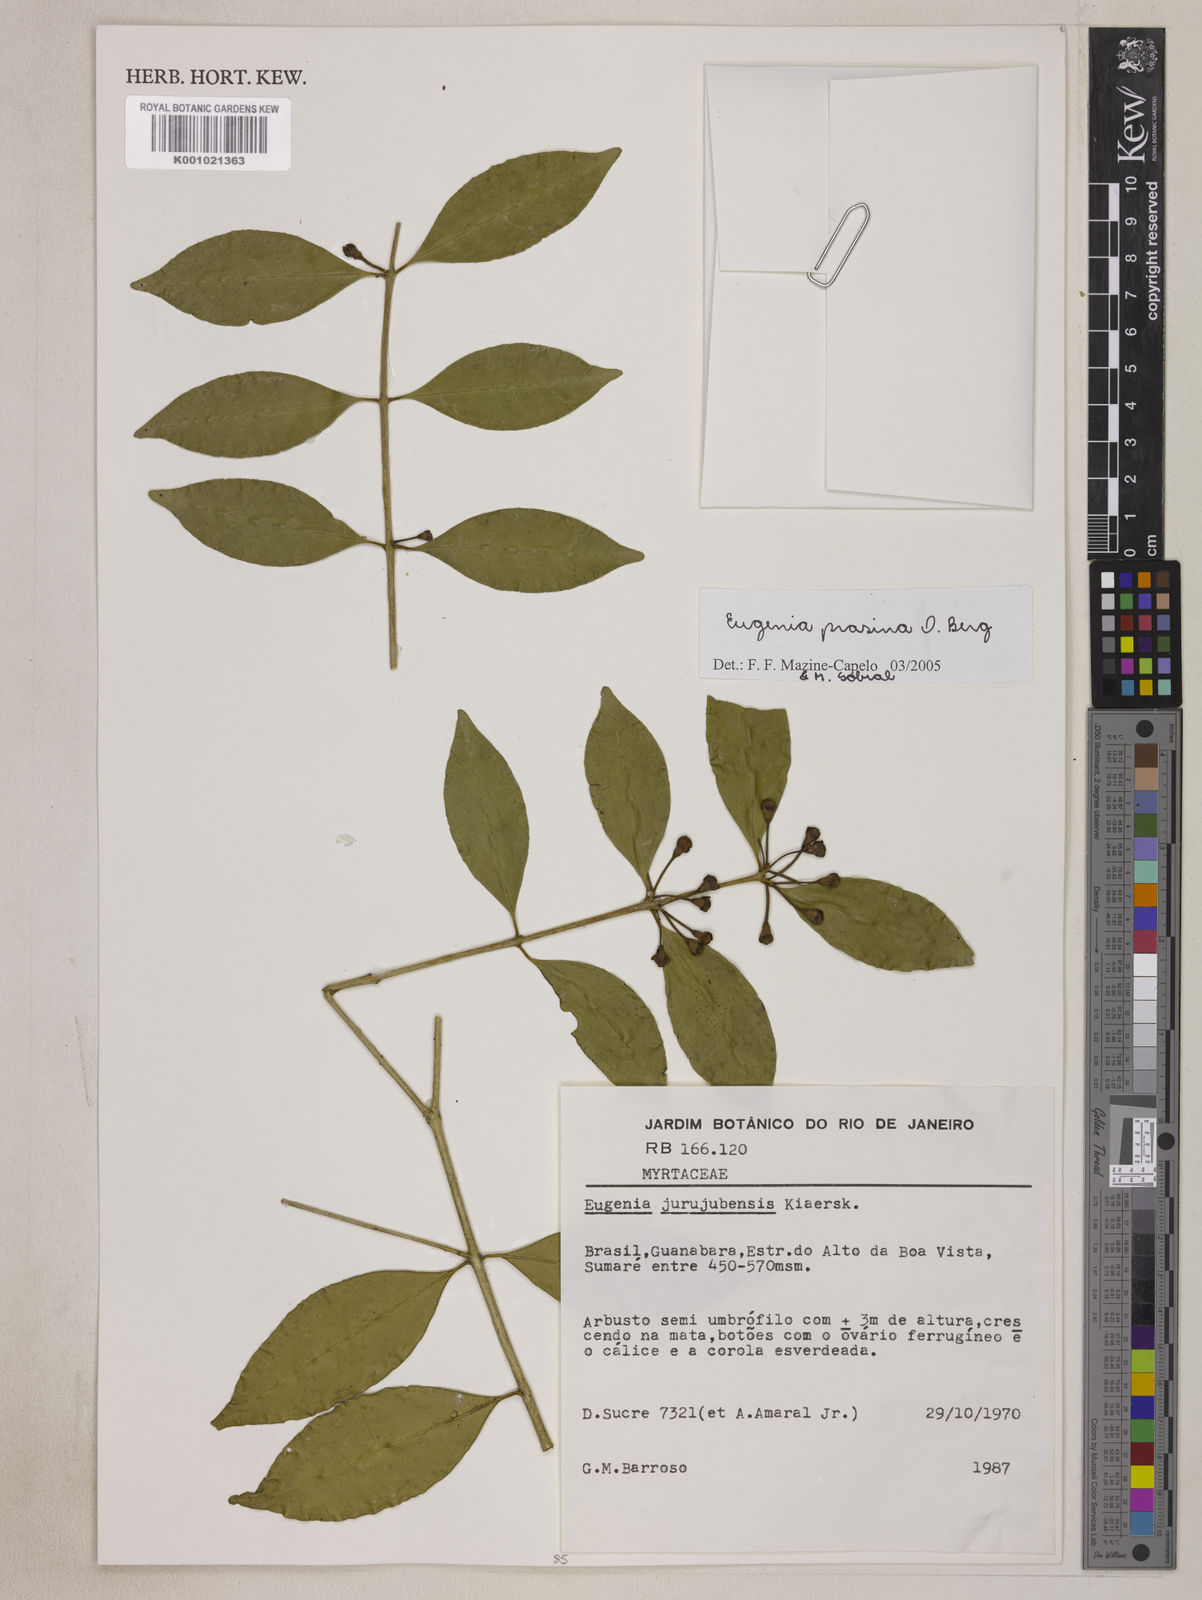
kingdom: Plantae
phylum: Tracheophyta
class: Magnoliopsida
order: Myrtales
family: Myrtaceae
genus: Eugenia
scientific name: Eugenia prasina
